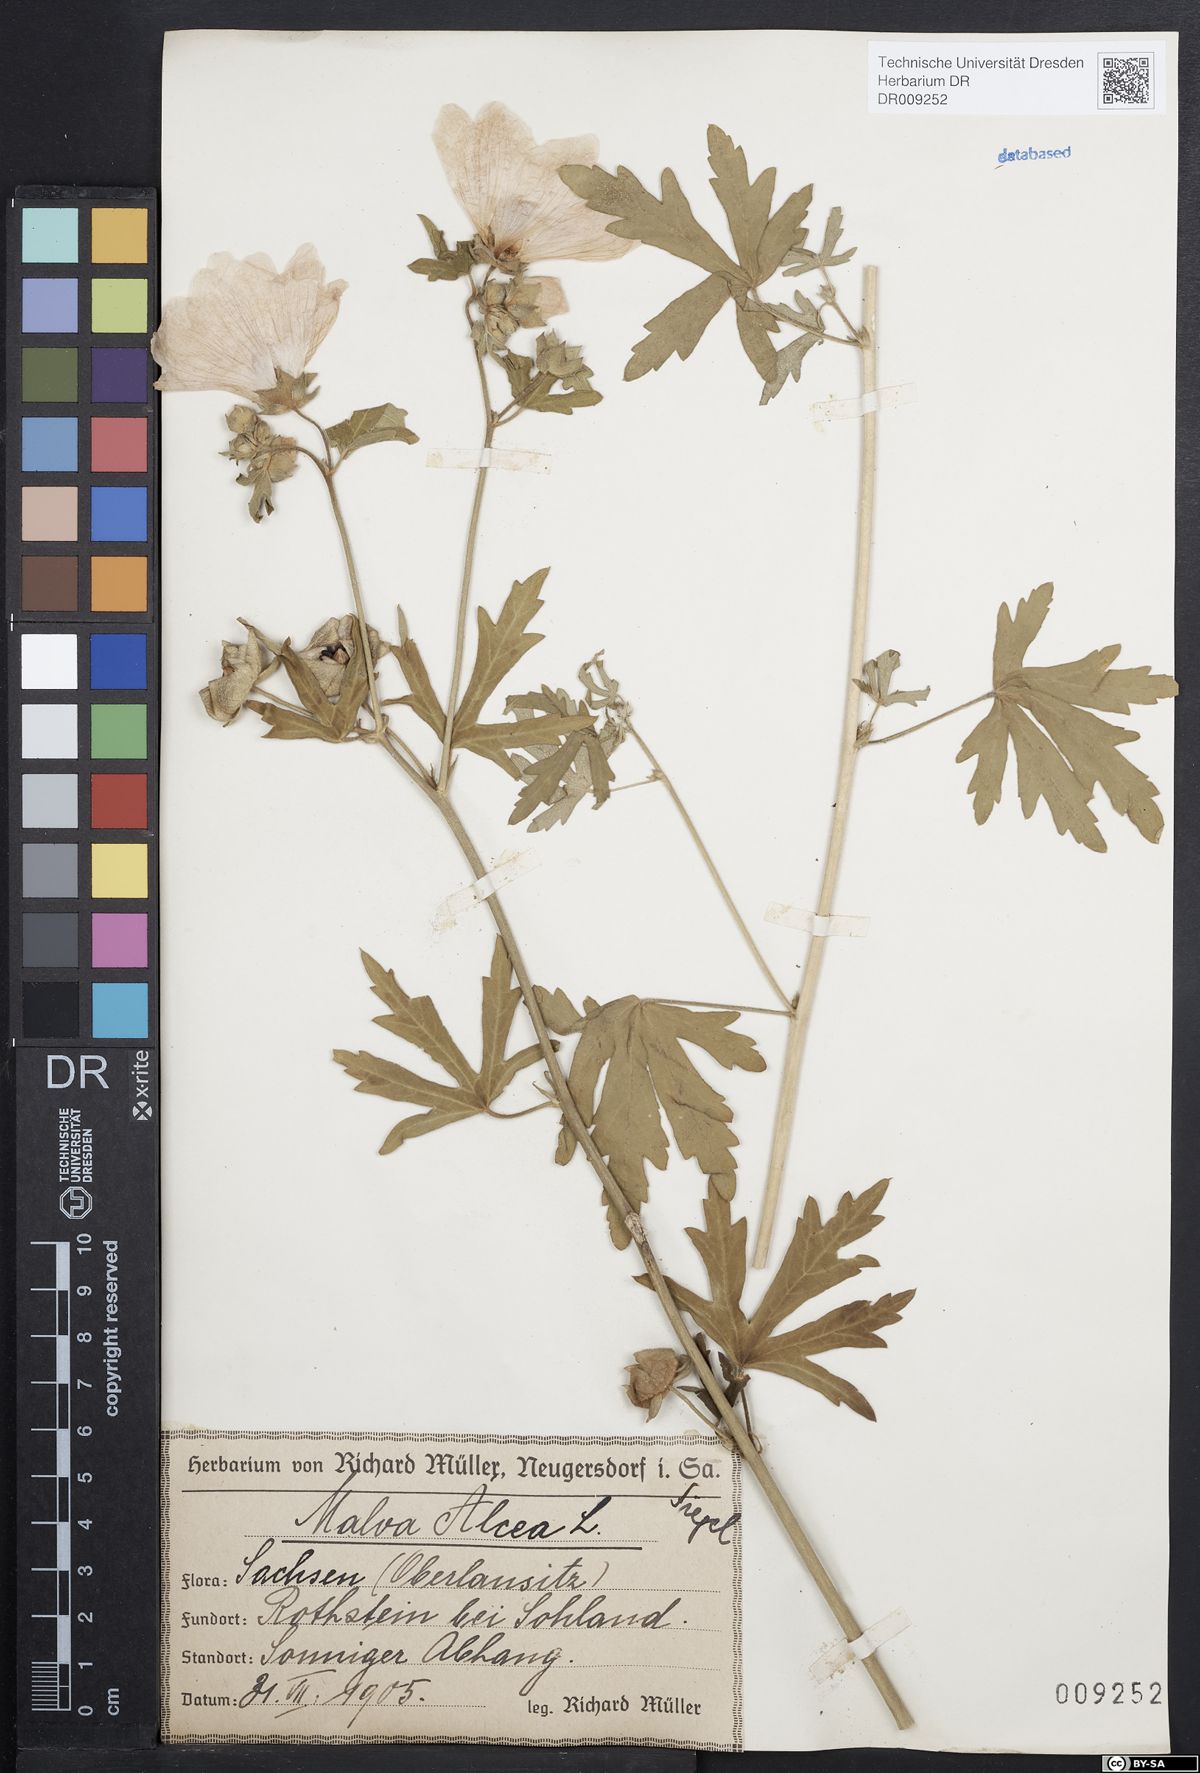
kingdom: Plantae
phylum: Tracheophyta
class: Magnoliopsida
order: Malvales
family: Malvaceae
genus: Malva
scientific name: Malva alcea
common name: Greater musk-mallow
